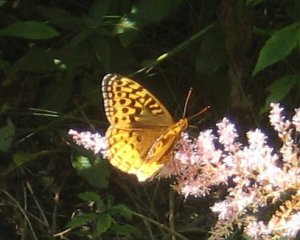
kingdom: Animalia
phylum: Arthropoda
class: Insecta
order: Lepidoptera
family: Nymphalidae
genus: Speyeria
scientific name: Speyeria cybele
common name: Great Spangled Fritillary
